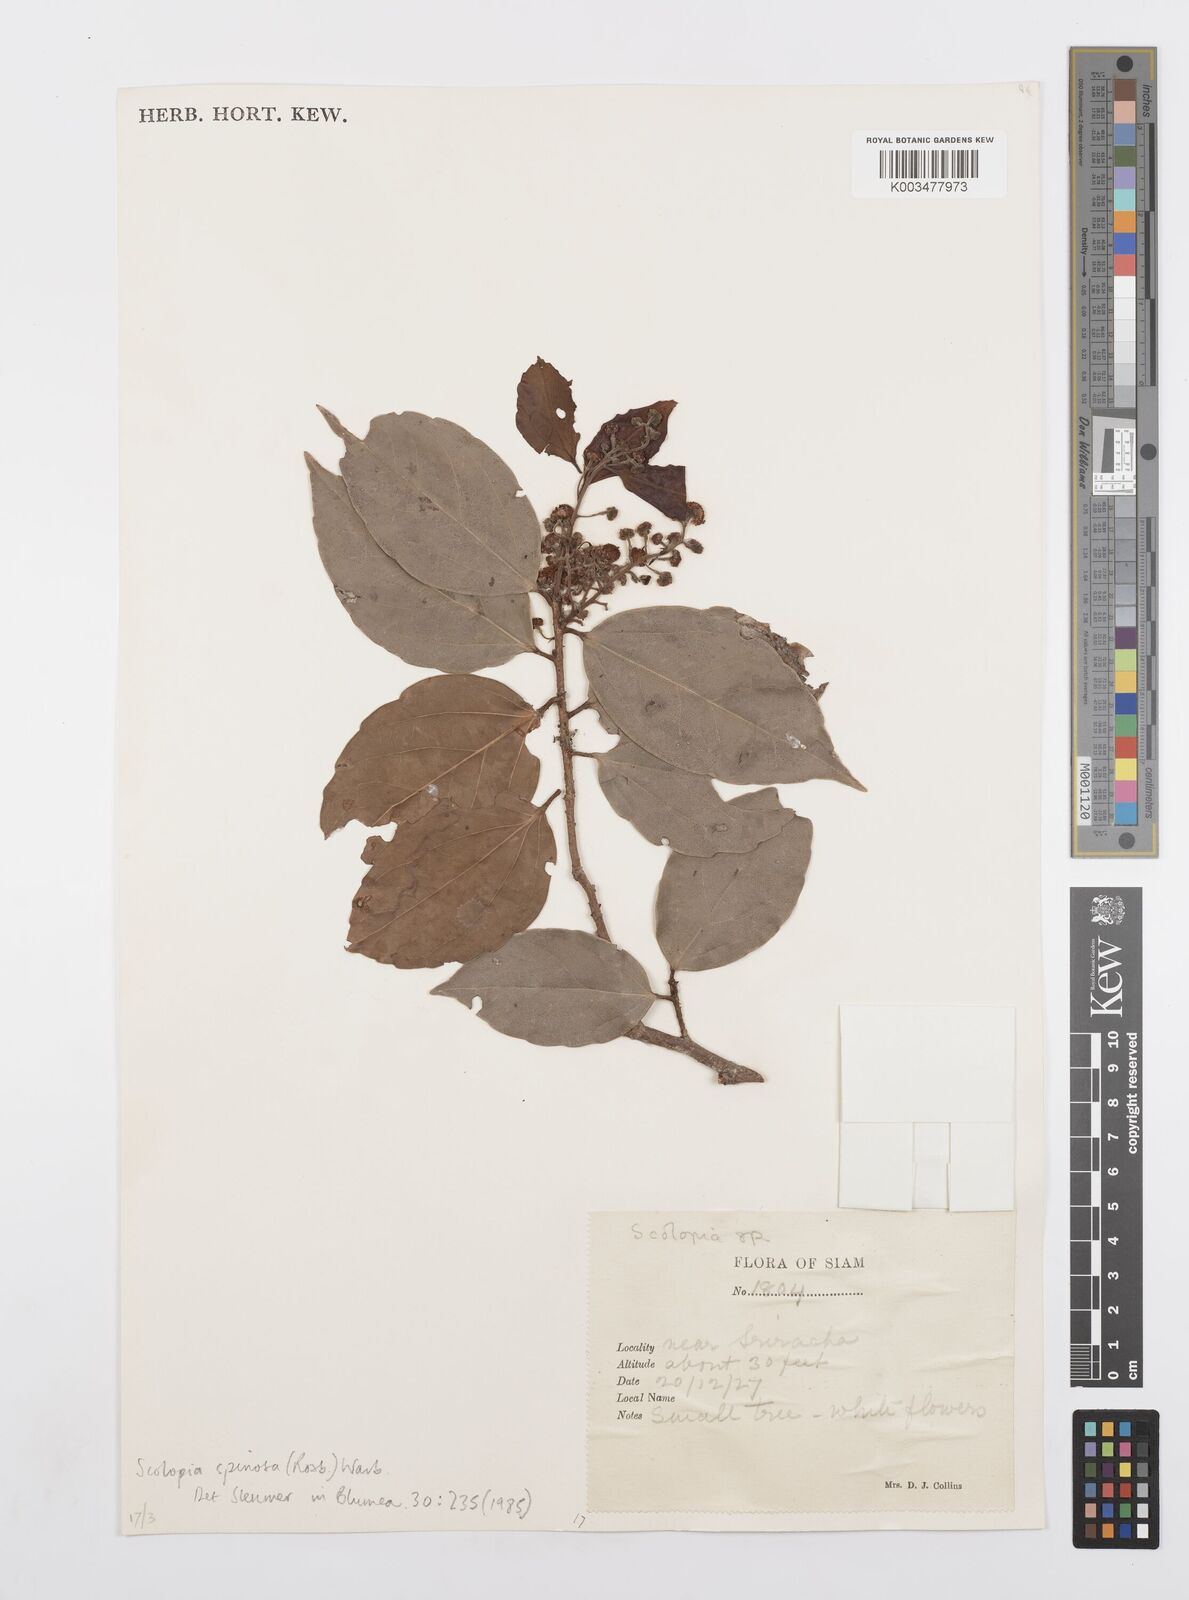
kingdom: Plantae
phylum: Tracheophyta
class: Magnoliopsida
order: Malpighiales
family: Salicaceae
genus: Scolopia
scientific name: Scolopia spinosa
